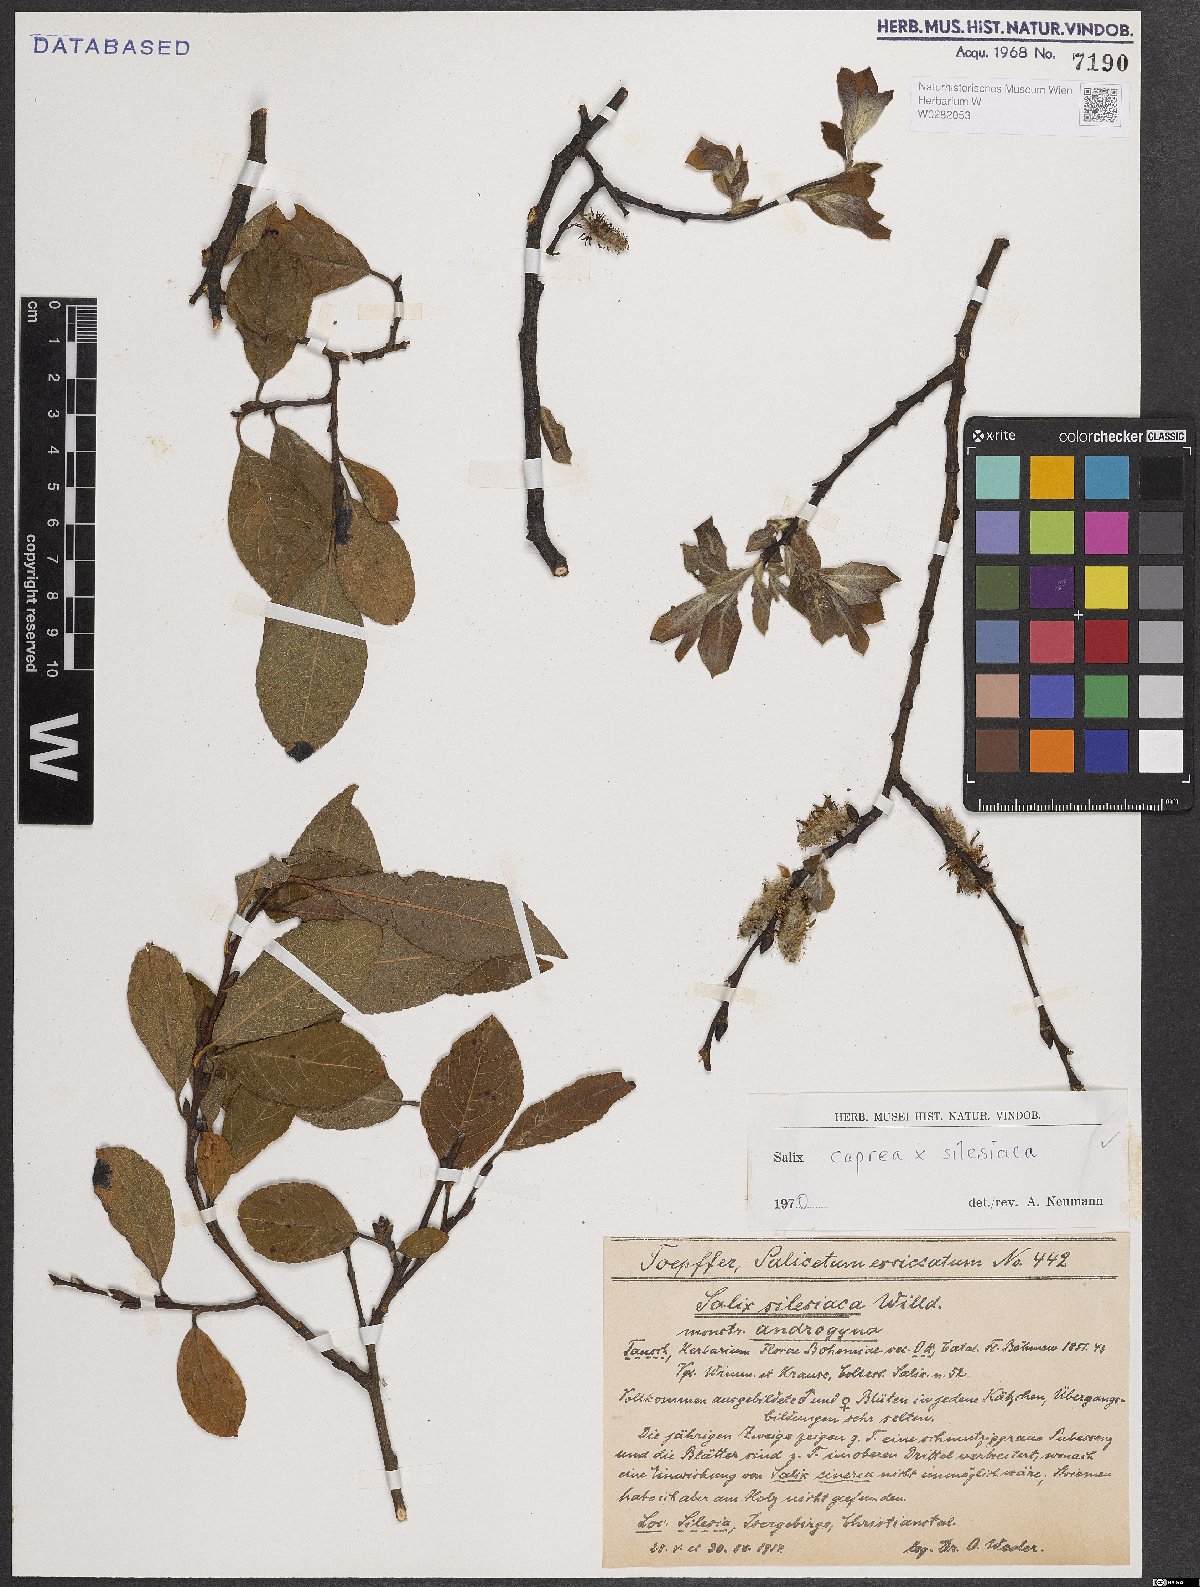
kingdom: Plantae
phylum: Tracheophyta
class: Magnoliopsida
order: Malpighiales
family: Salicaceae
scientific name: Salicaceae
